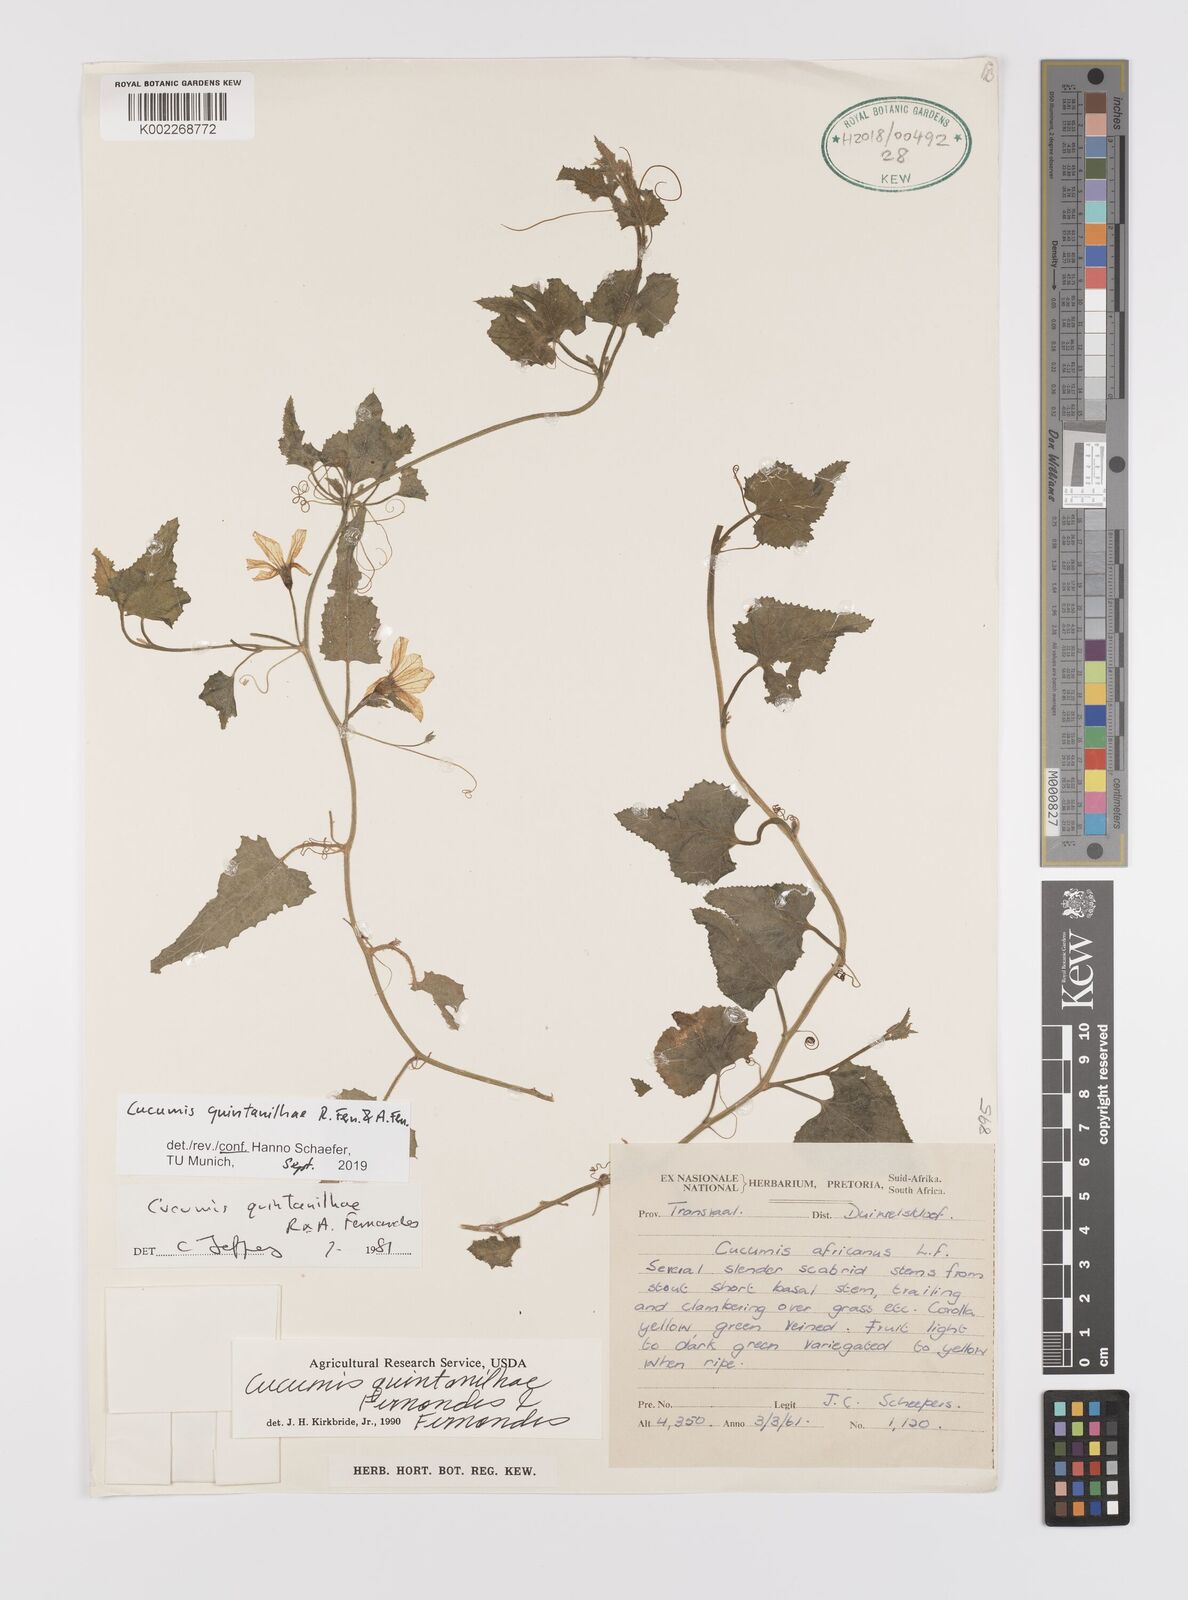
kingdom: Plantae
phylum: Tracheophyta
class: Magnoliopsida
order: Cucurbitales
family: Cucurbitaceae
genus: Cucumis
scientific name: Cucumis quintanilhae
